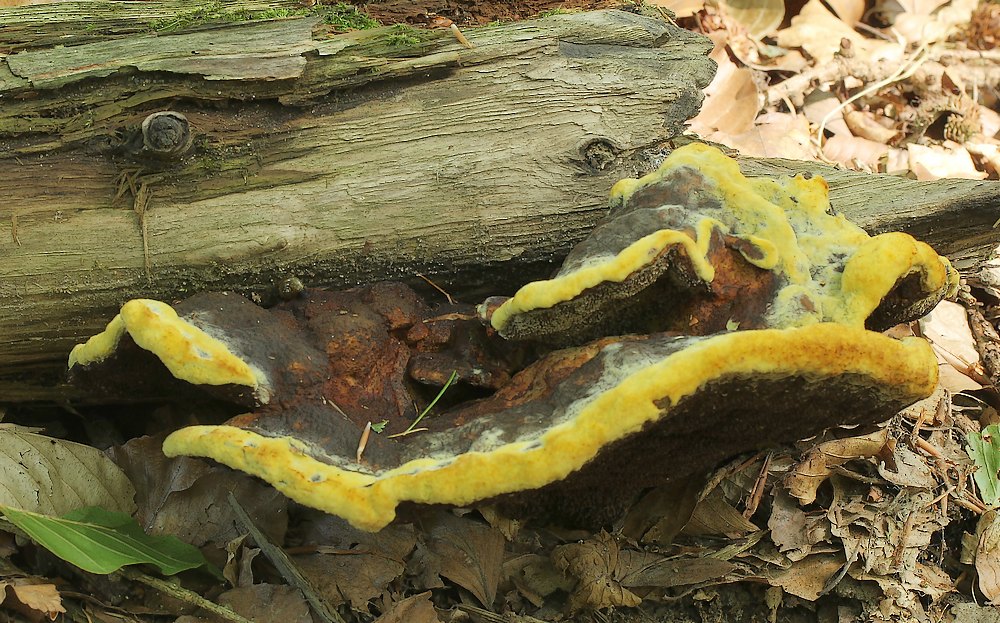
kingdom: Fungi
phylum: Basidiomycota
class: Agaricomycetes
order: Polyporales
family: Laetiporaceae
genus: Phaeolus
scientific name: Phaeolus schweinitzii
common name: brunporesvamp
